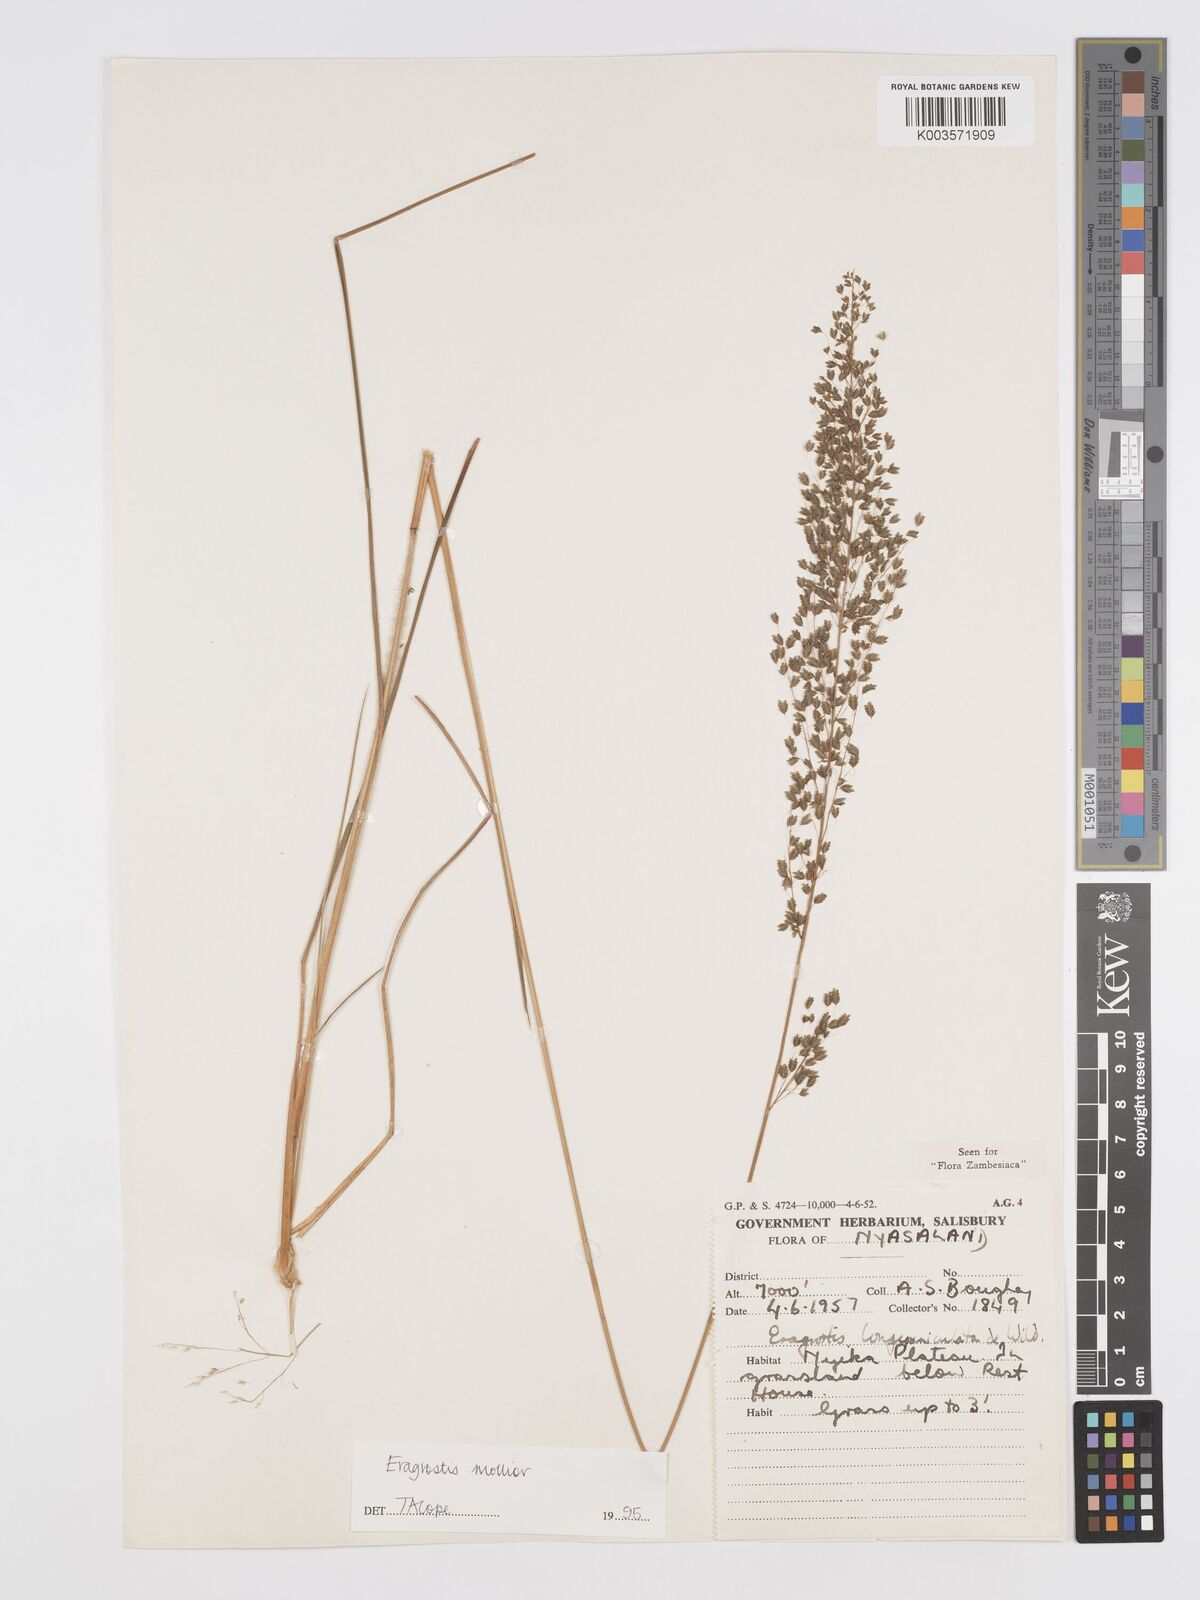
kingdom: Plantae
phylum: Tracheophyta
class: Liliopsida
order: Poales
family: Poaceae
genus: Eragrostis
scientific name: Eragrostis mollior
